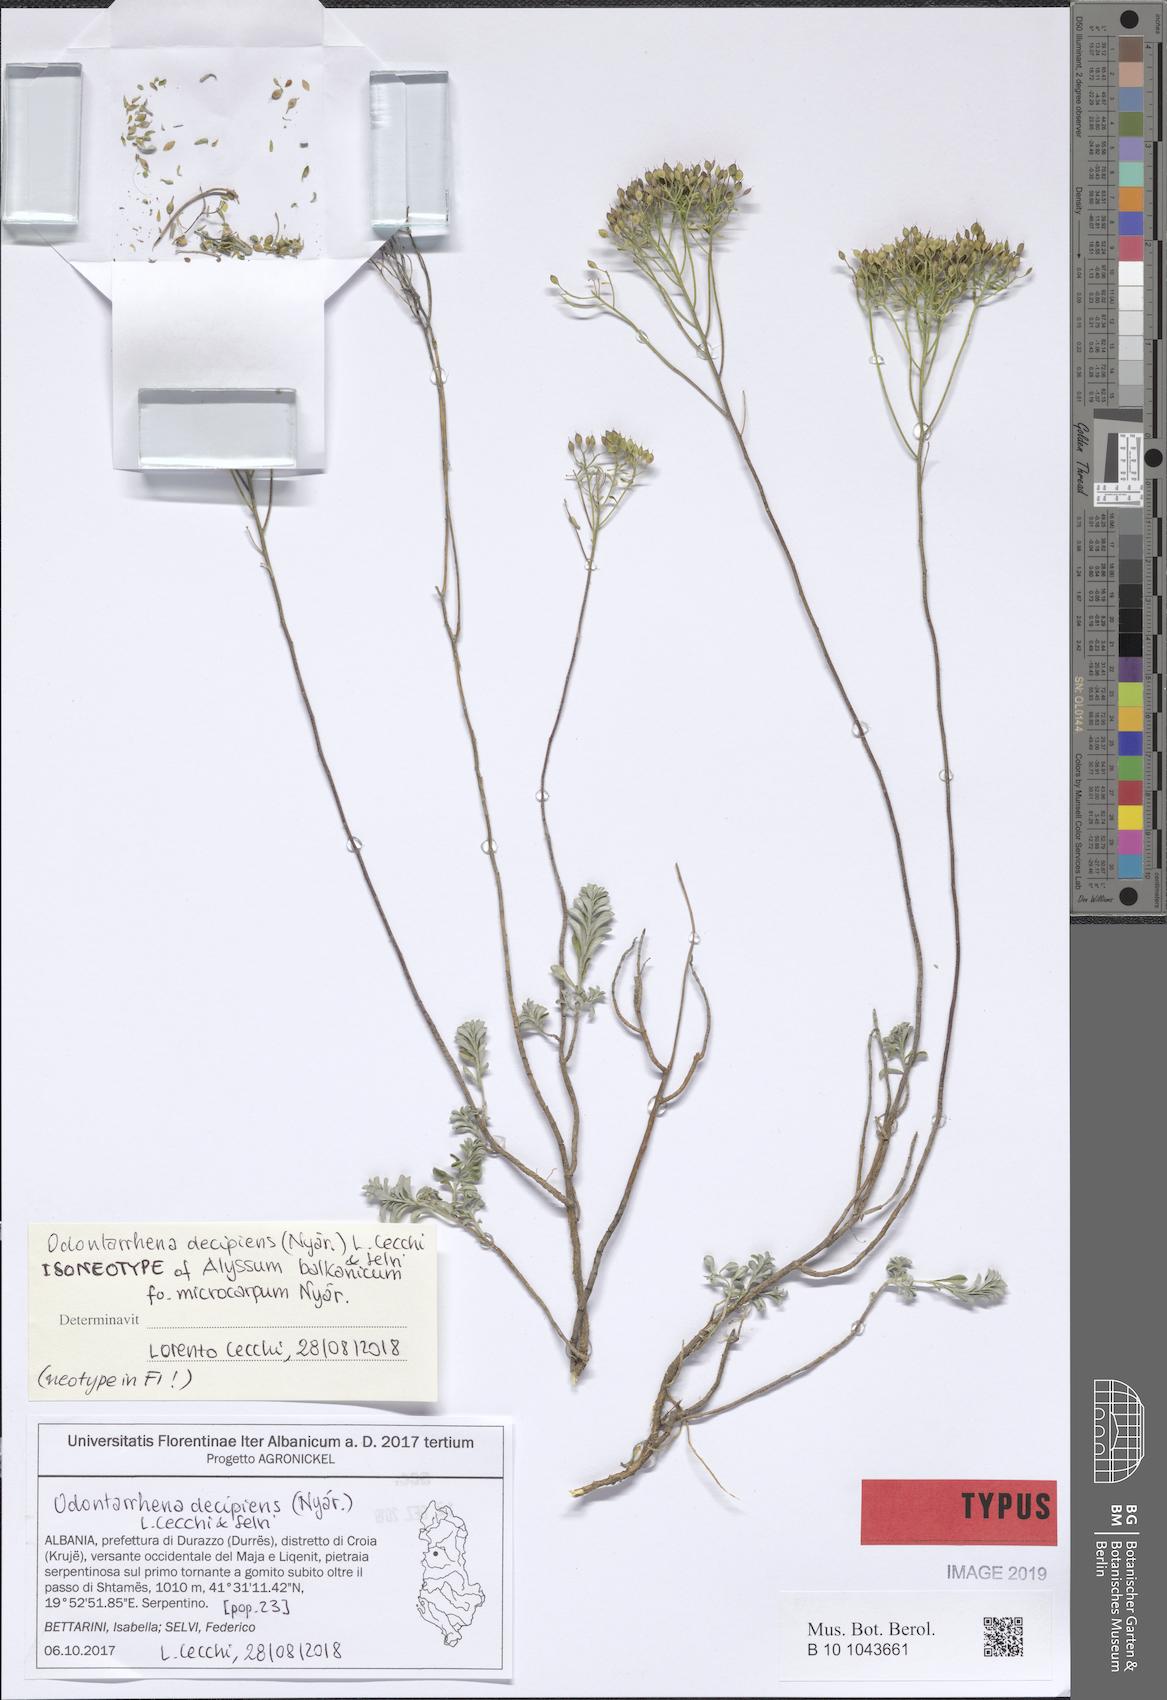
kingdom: Plantae
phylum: Tracheophyta
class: Magnoliopsida
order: Brassicales
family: Brassicaceae
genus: Odontarrhena
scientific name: Odontarrhena muralis
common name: Rock alyssum
